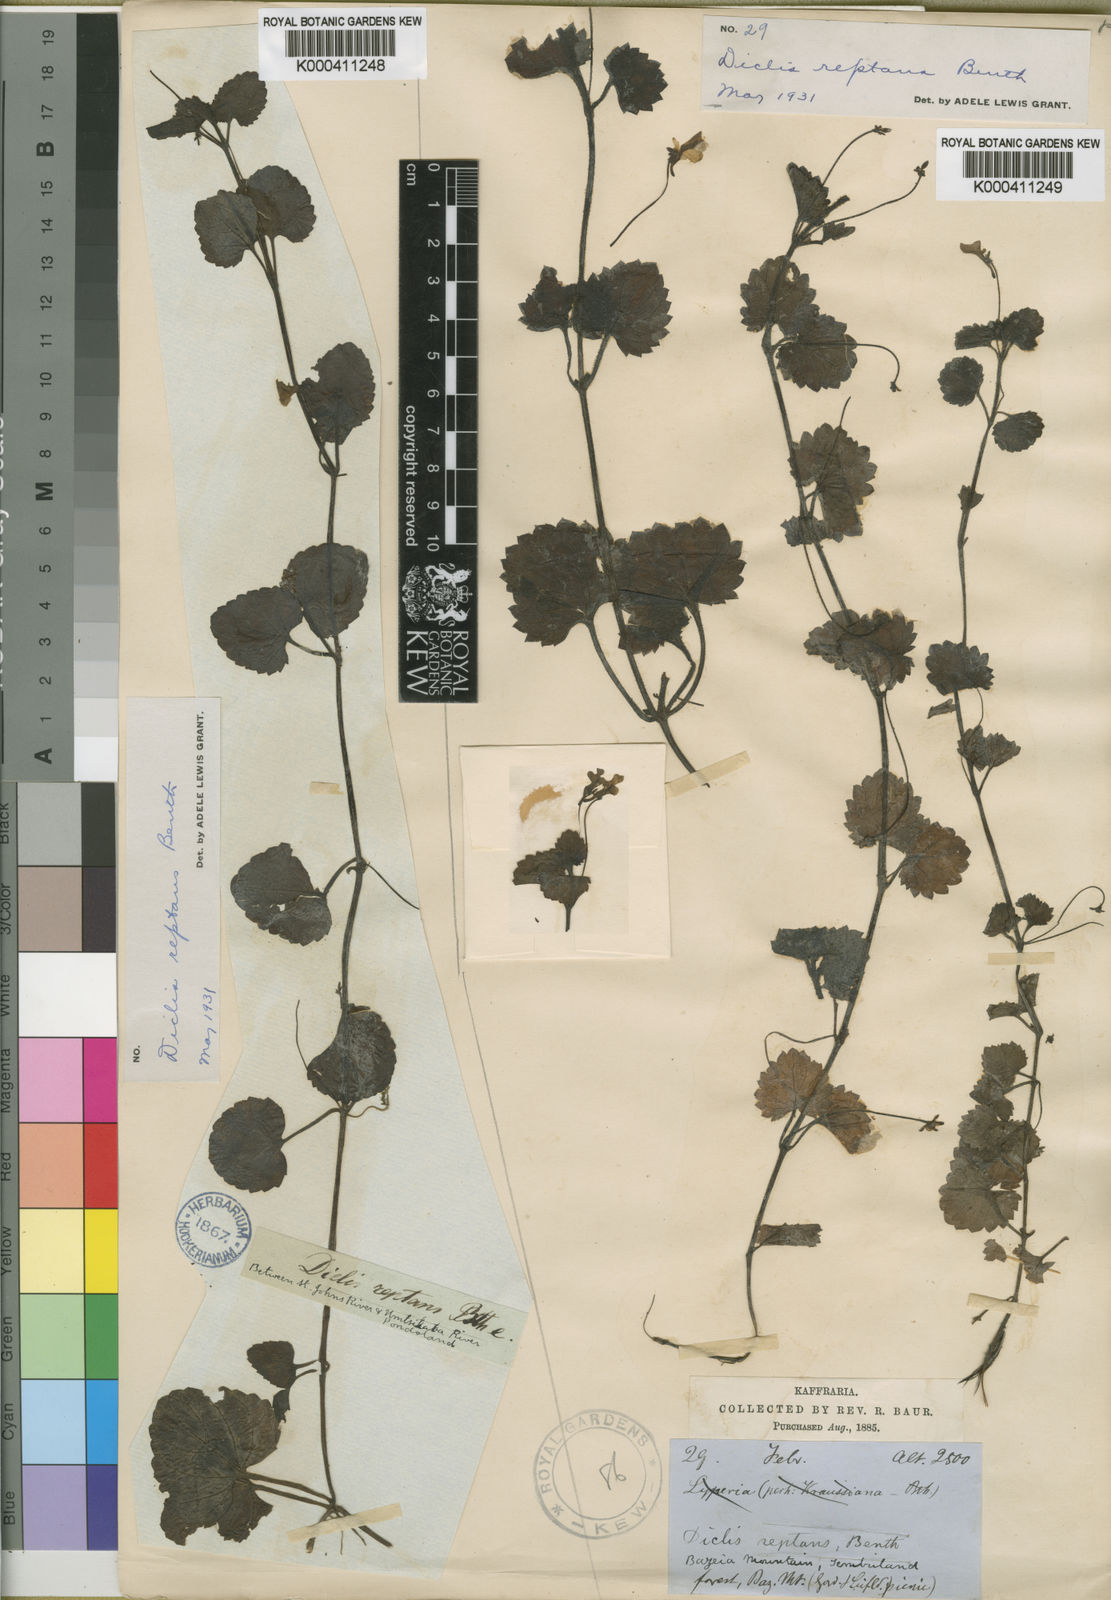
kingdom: Plantae
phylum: Tracheophyta
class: Magnoliopsida
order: Lamiales
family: Scrophulariaceae
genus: Diclis
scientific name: Diclis reptans
